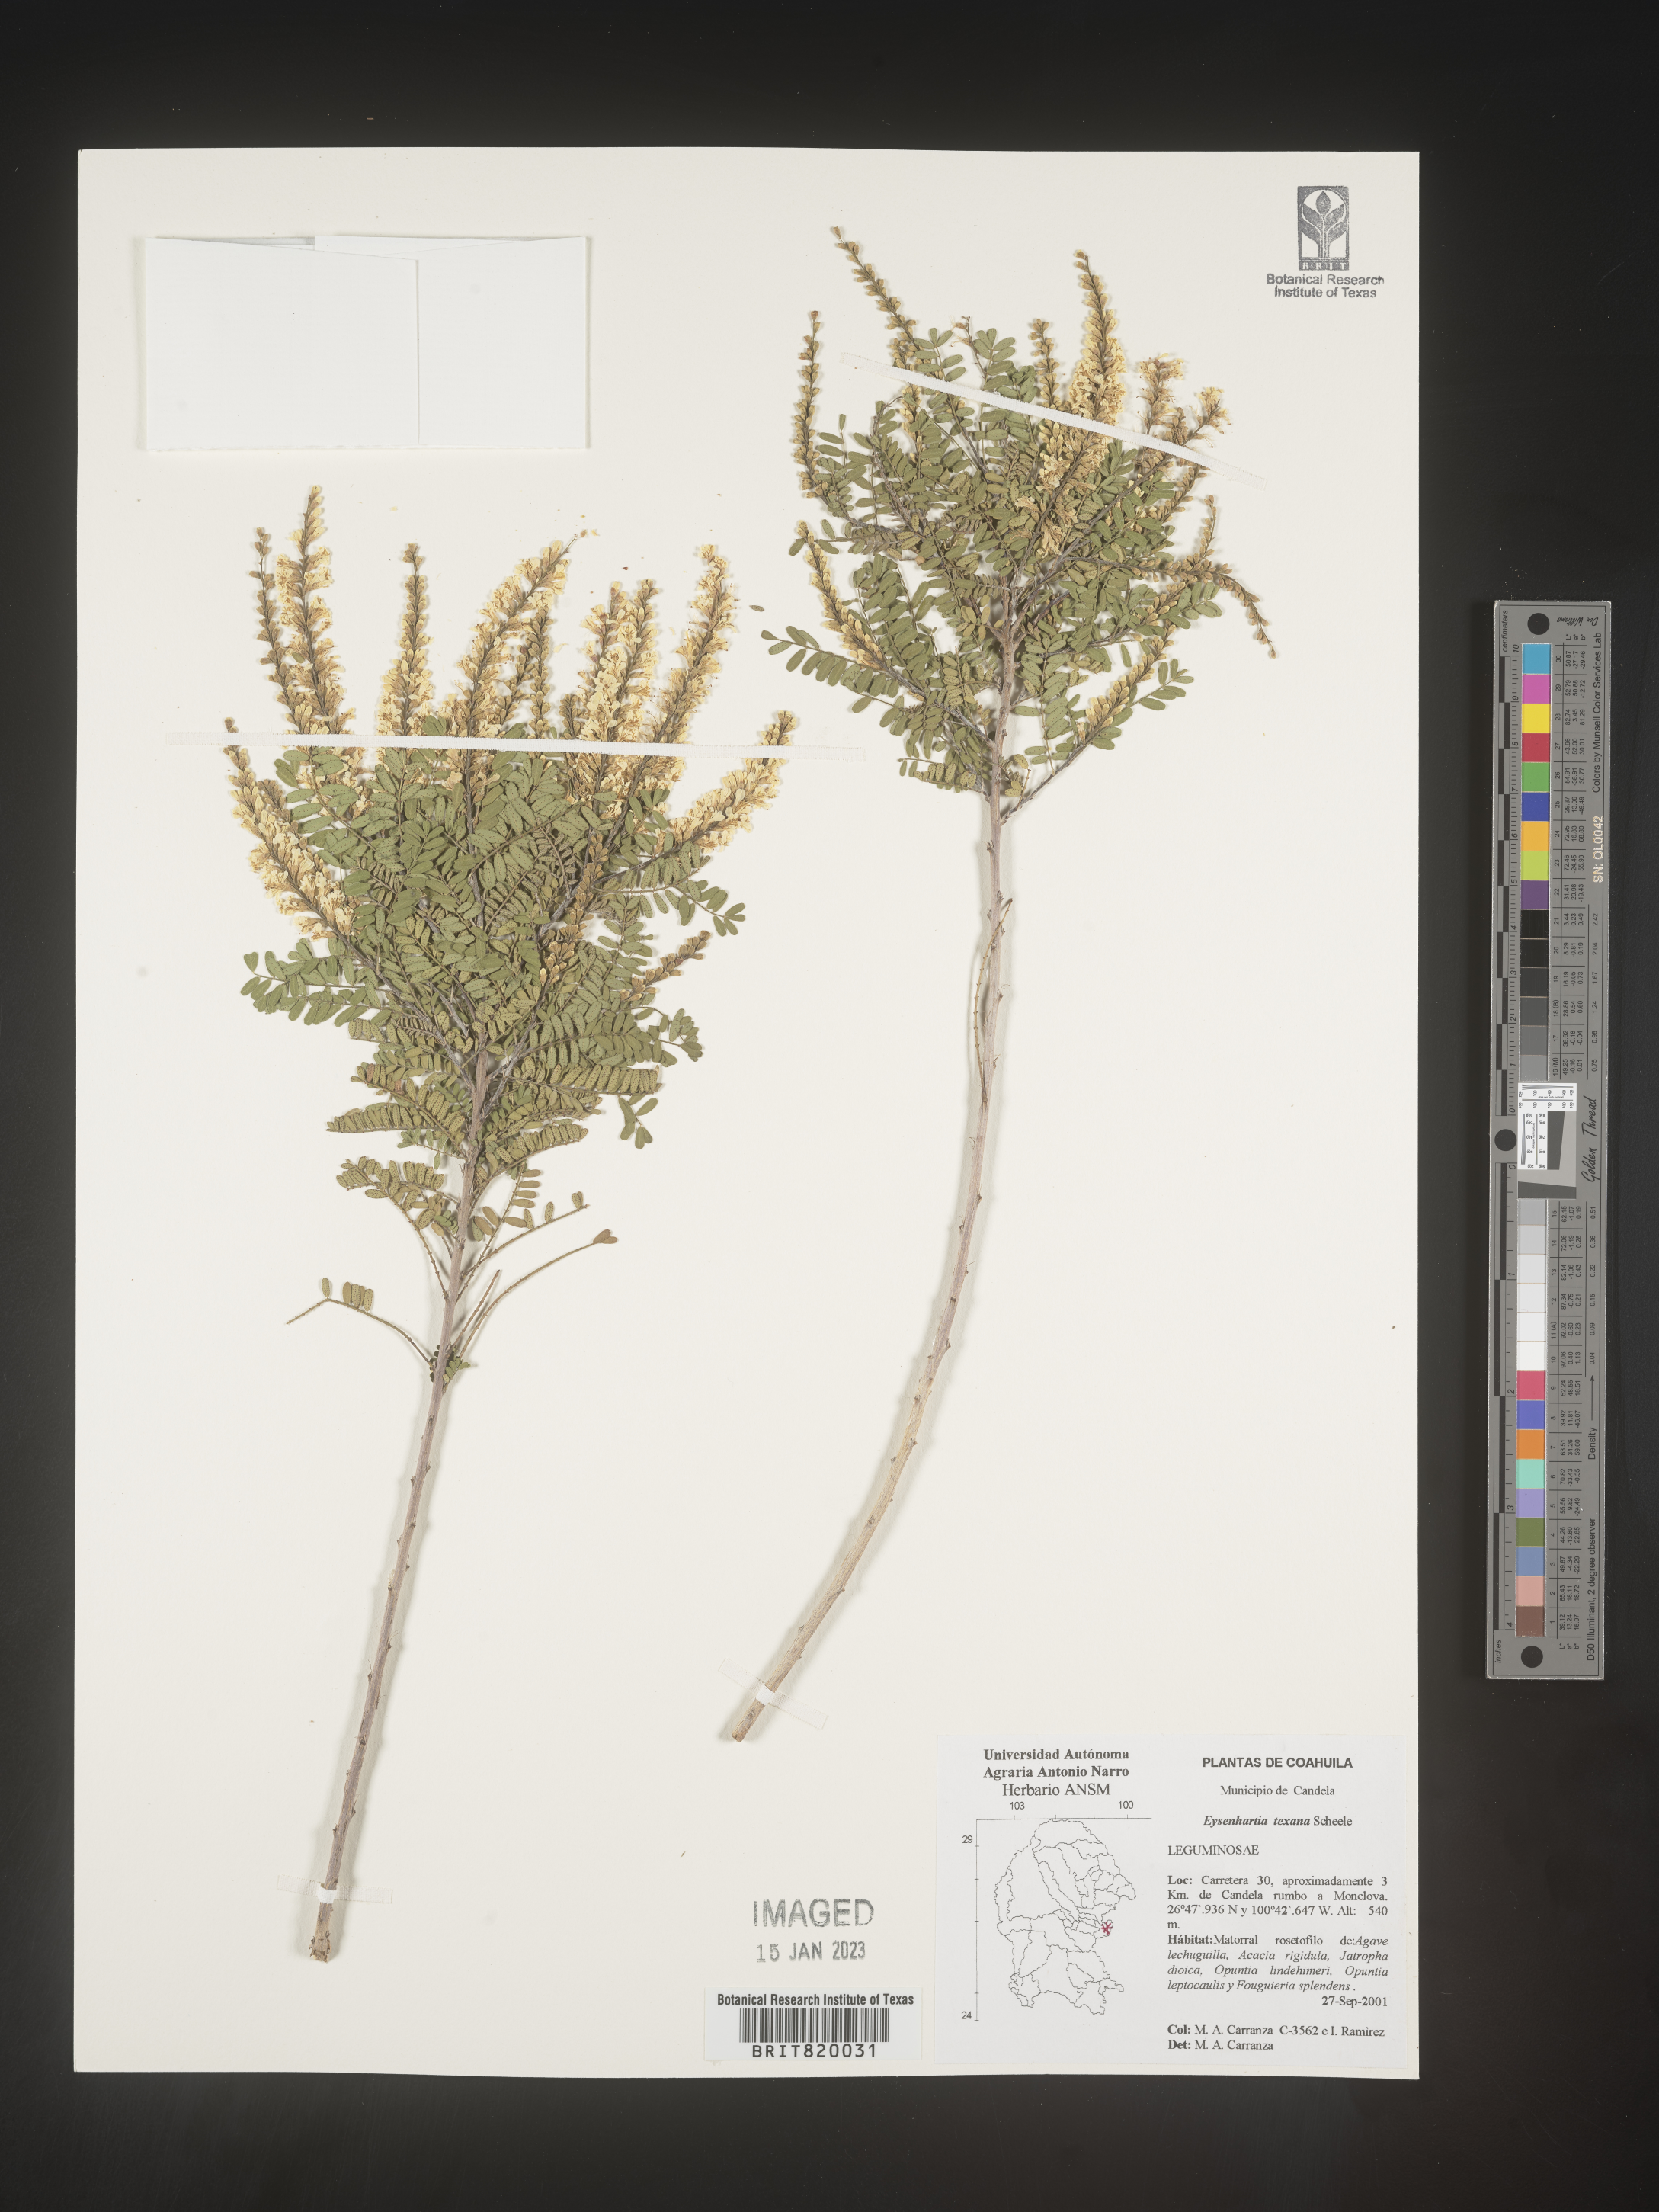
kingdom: Plantae
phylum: Tracheophyta
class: Magnoliopsida
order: Fabales
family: Fabaceae
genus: Eysenhardtia
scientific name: Eysenhardtia
